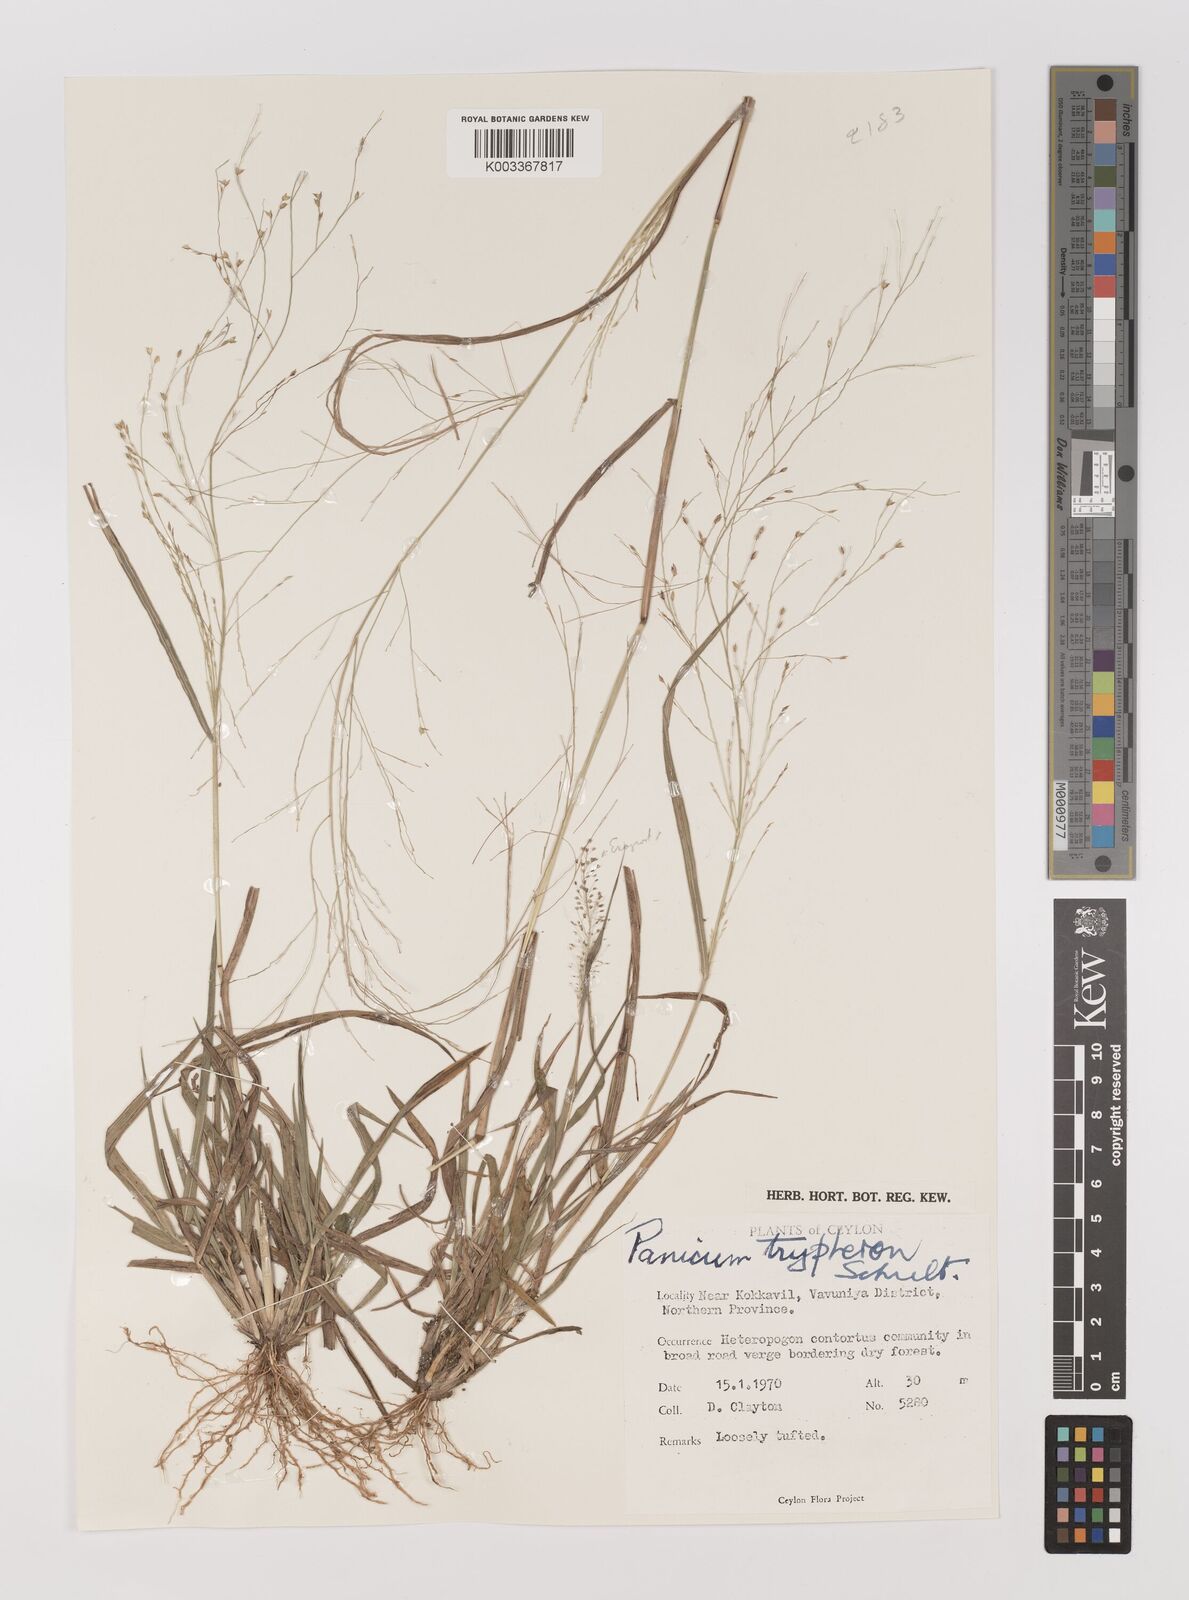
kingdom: Plantae
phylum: Tracheophyta
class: Liliopsida
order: Poales
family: Poaceae
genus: Panicum
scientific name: Panicum curviflorum
